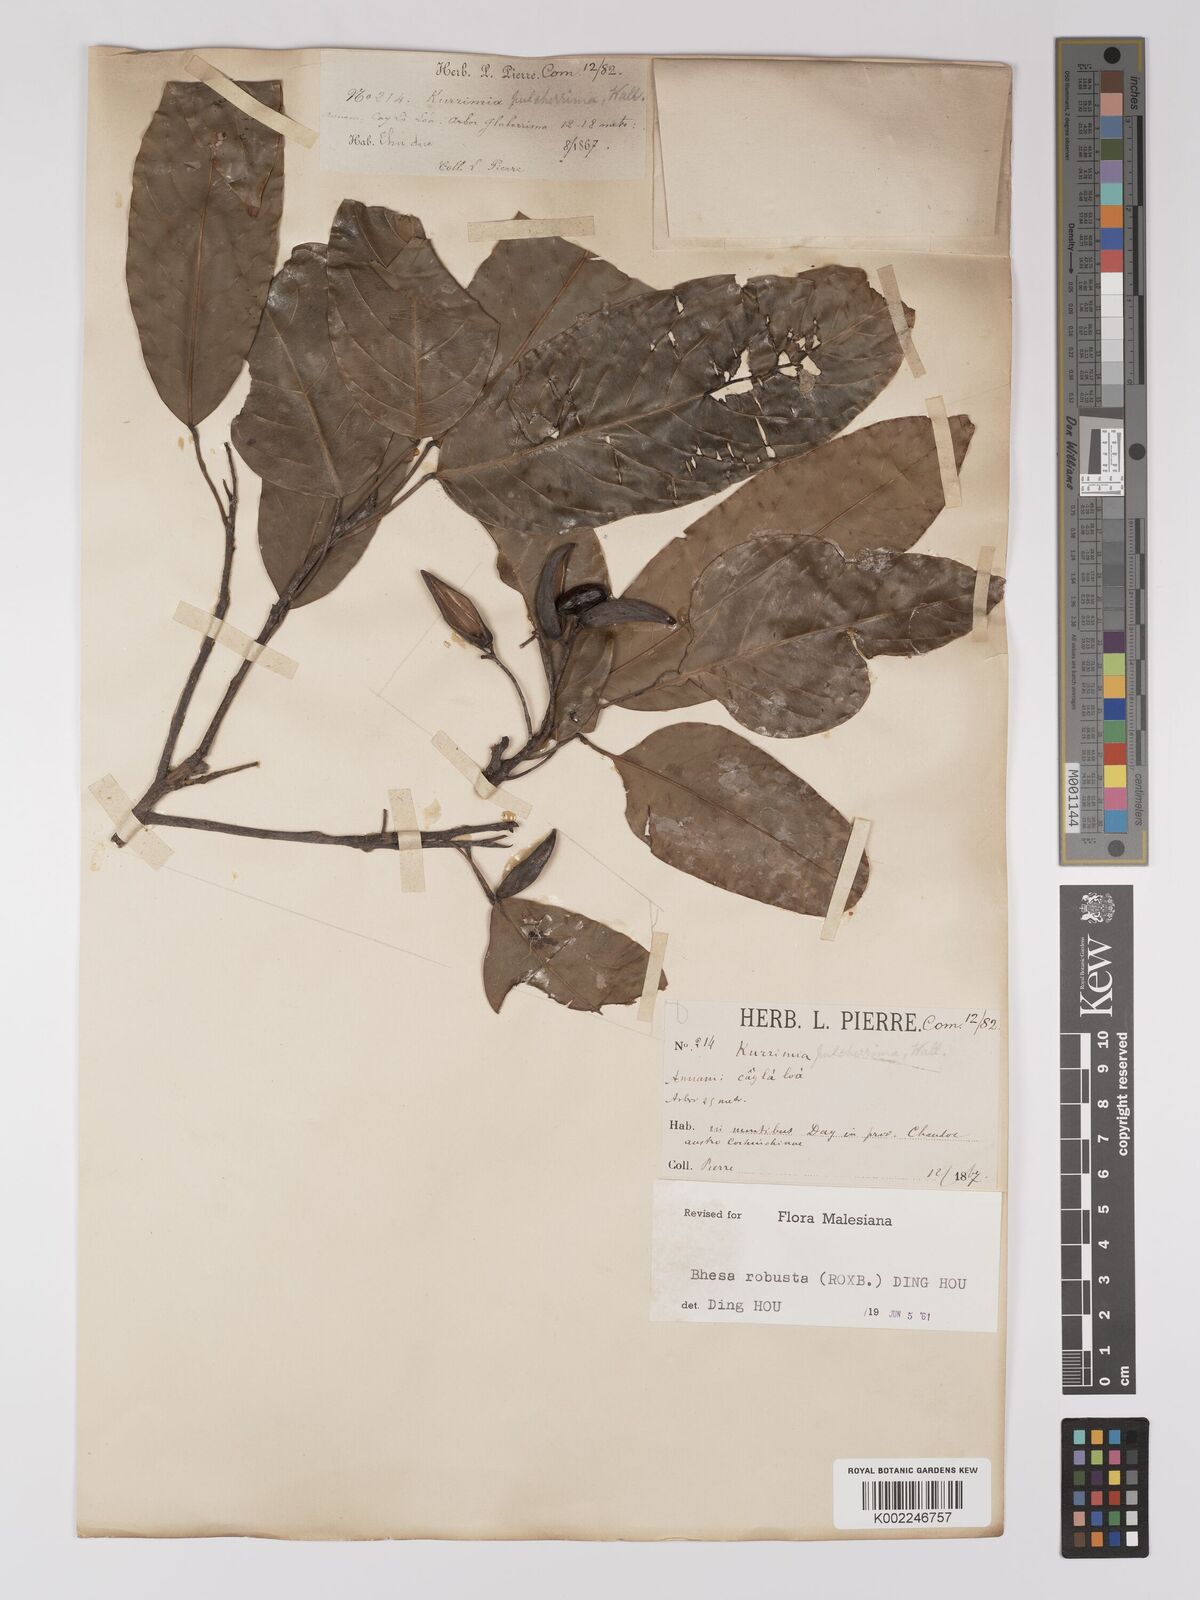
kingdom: Plantae
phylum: Tracheophyta
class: Magnoliopsida
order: Malpighiales
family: Centroplacaceae
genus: Bhesa
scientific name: Bhesa robusta
